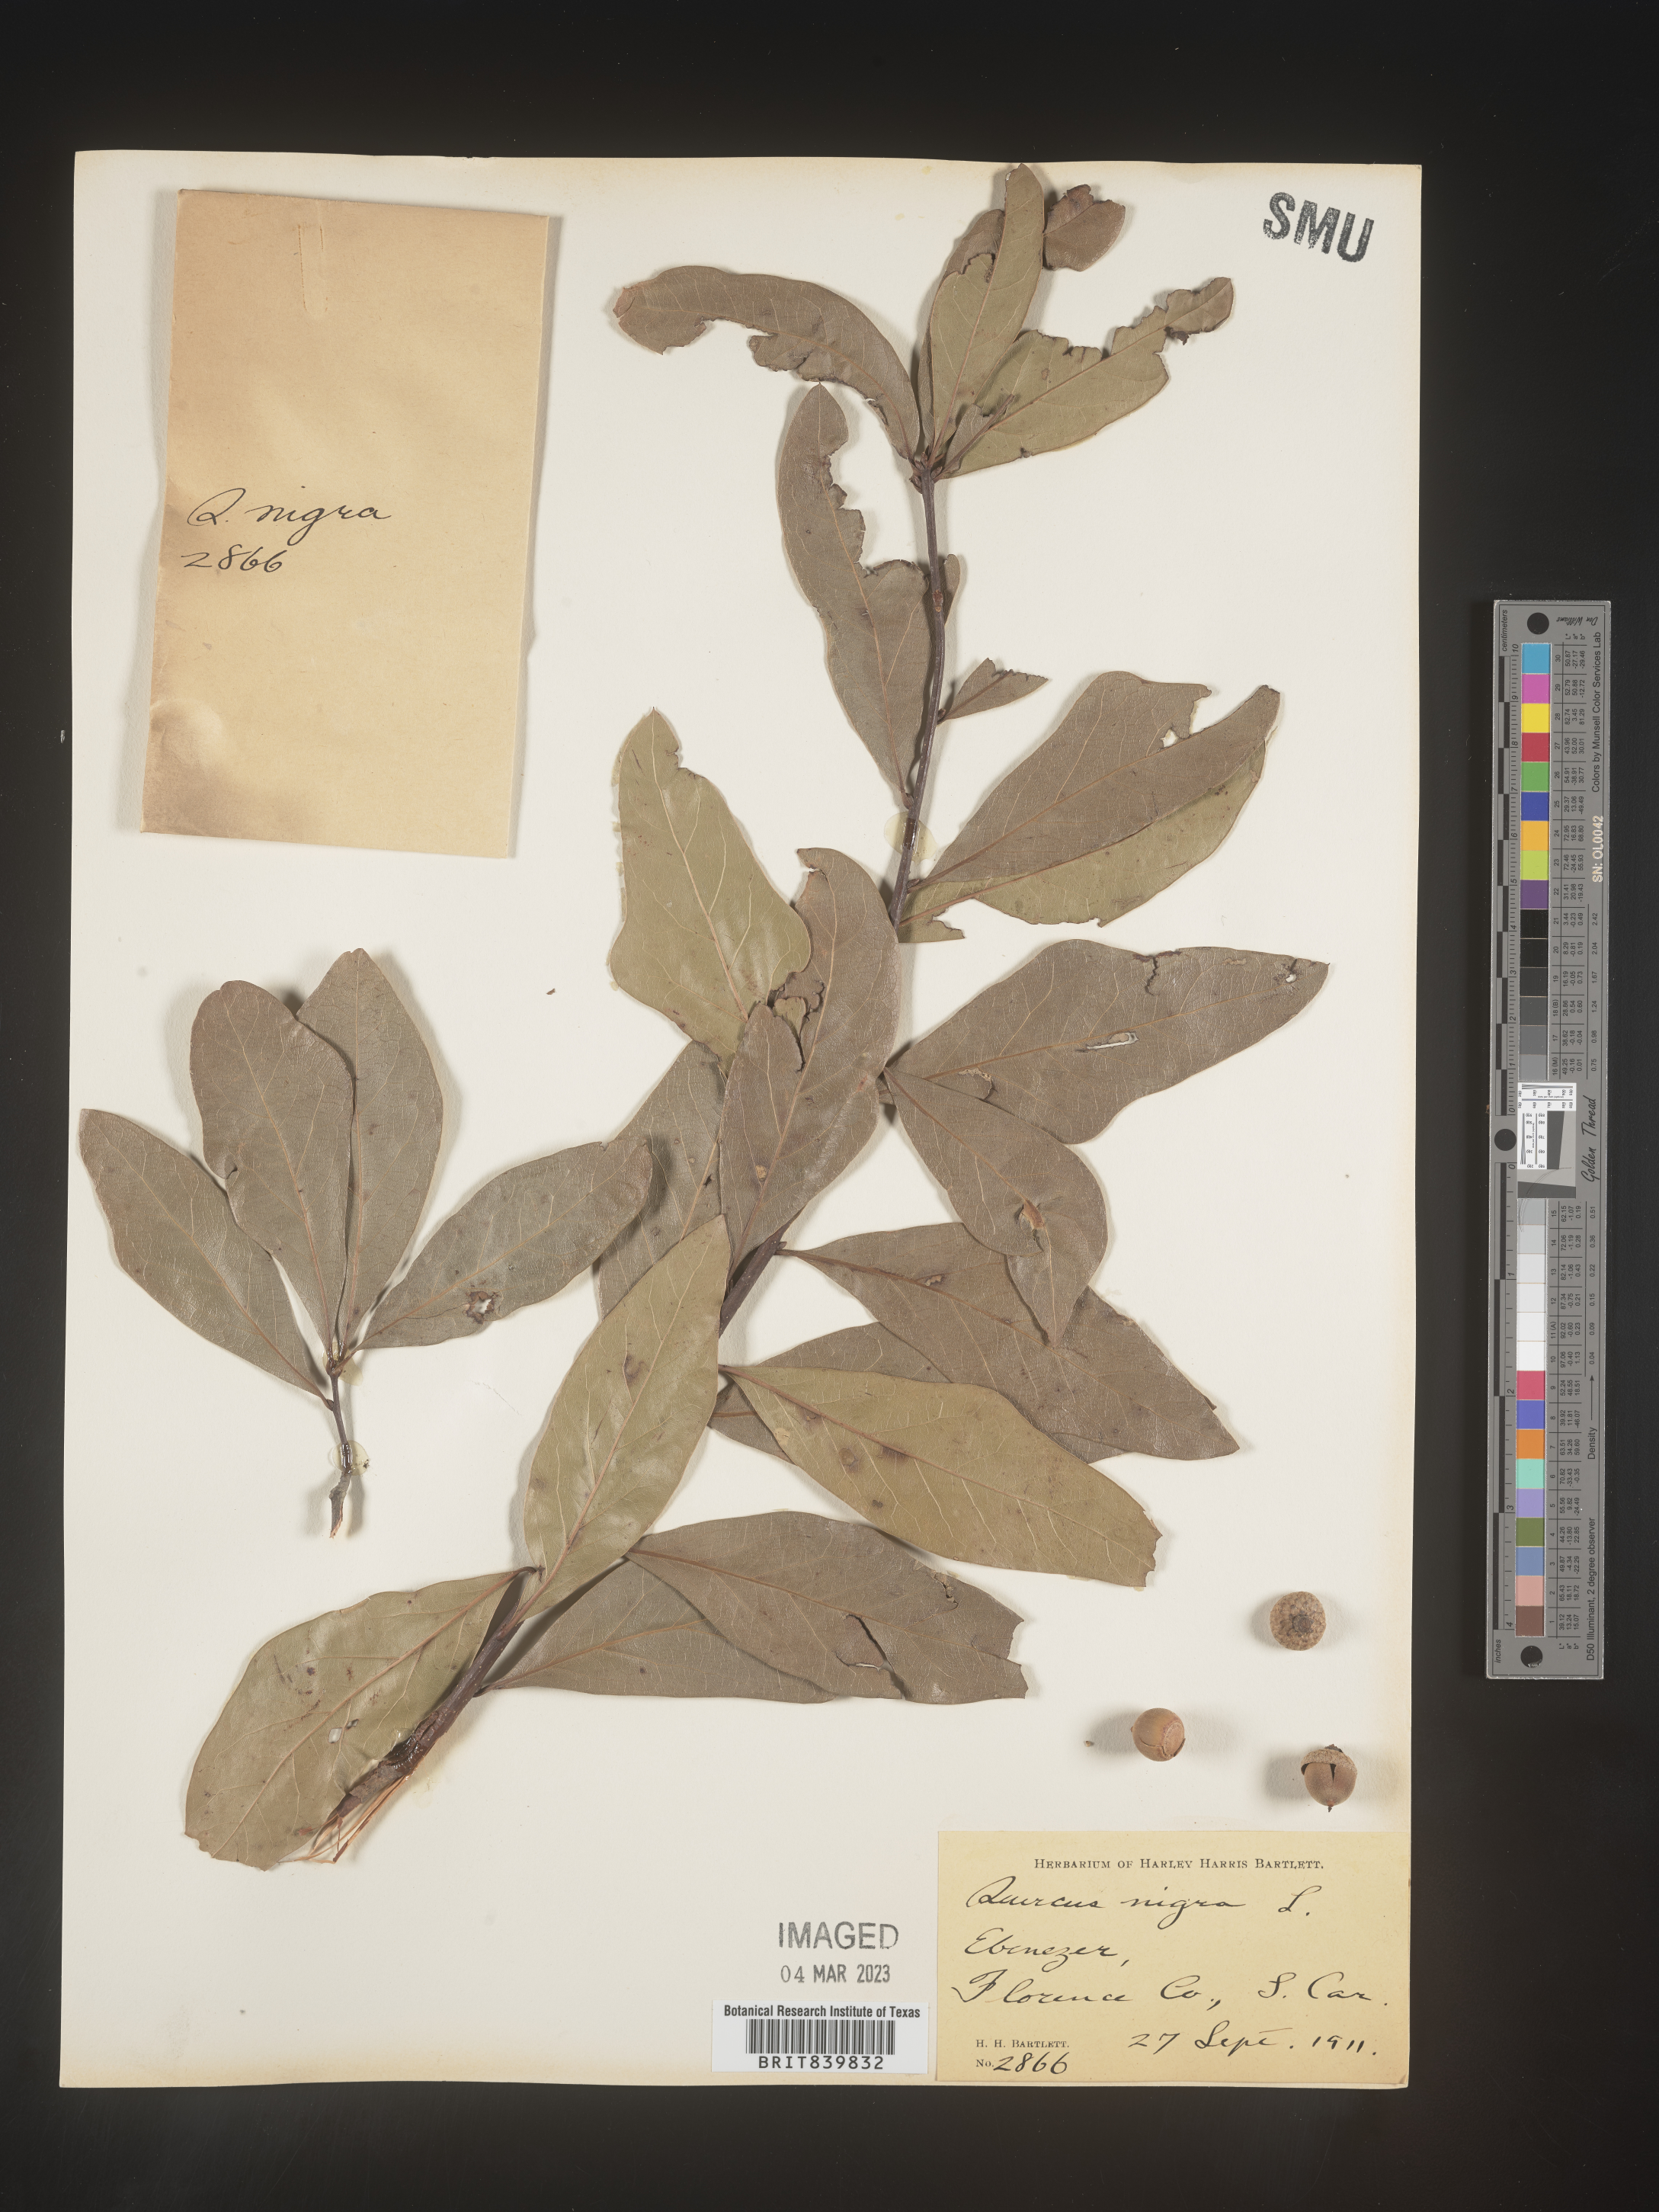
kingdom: Plantae
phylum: Tracheophyta
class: Magnoliopsida
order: Fagales
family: Fagaceae
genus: Quercus
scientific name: Quercus nigra
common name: Water oak
